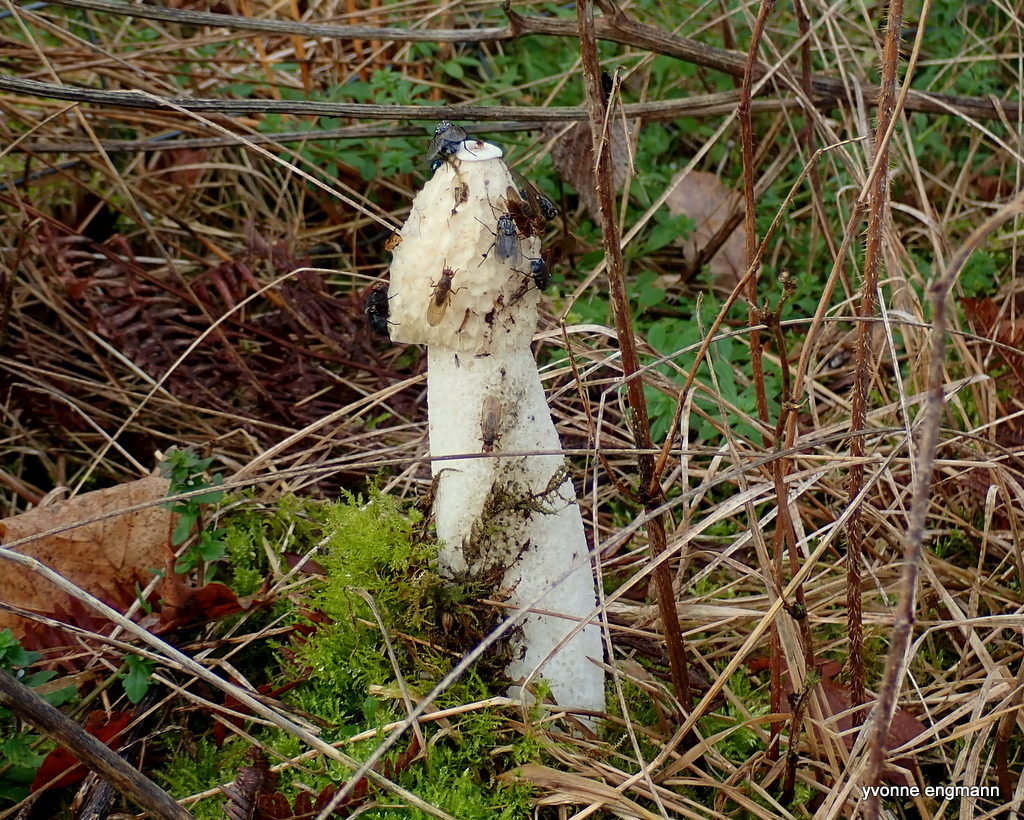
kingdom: Fungi
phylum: Basidiomycota
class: Agaricomycetes
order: Phallales
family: Phallaceae
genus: Phallus
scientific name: Phallus impudicus
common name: almindelig stinksvamp
